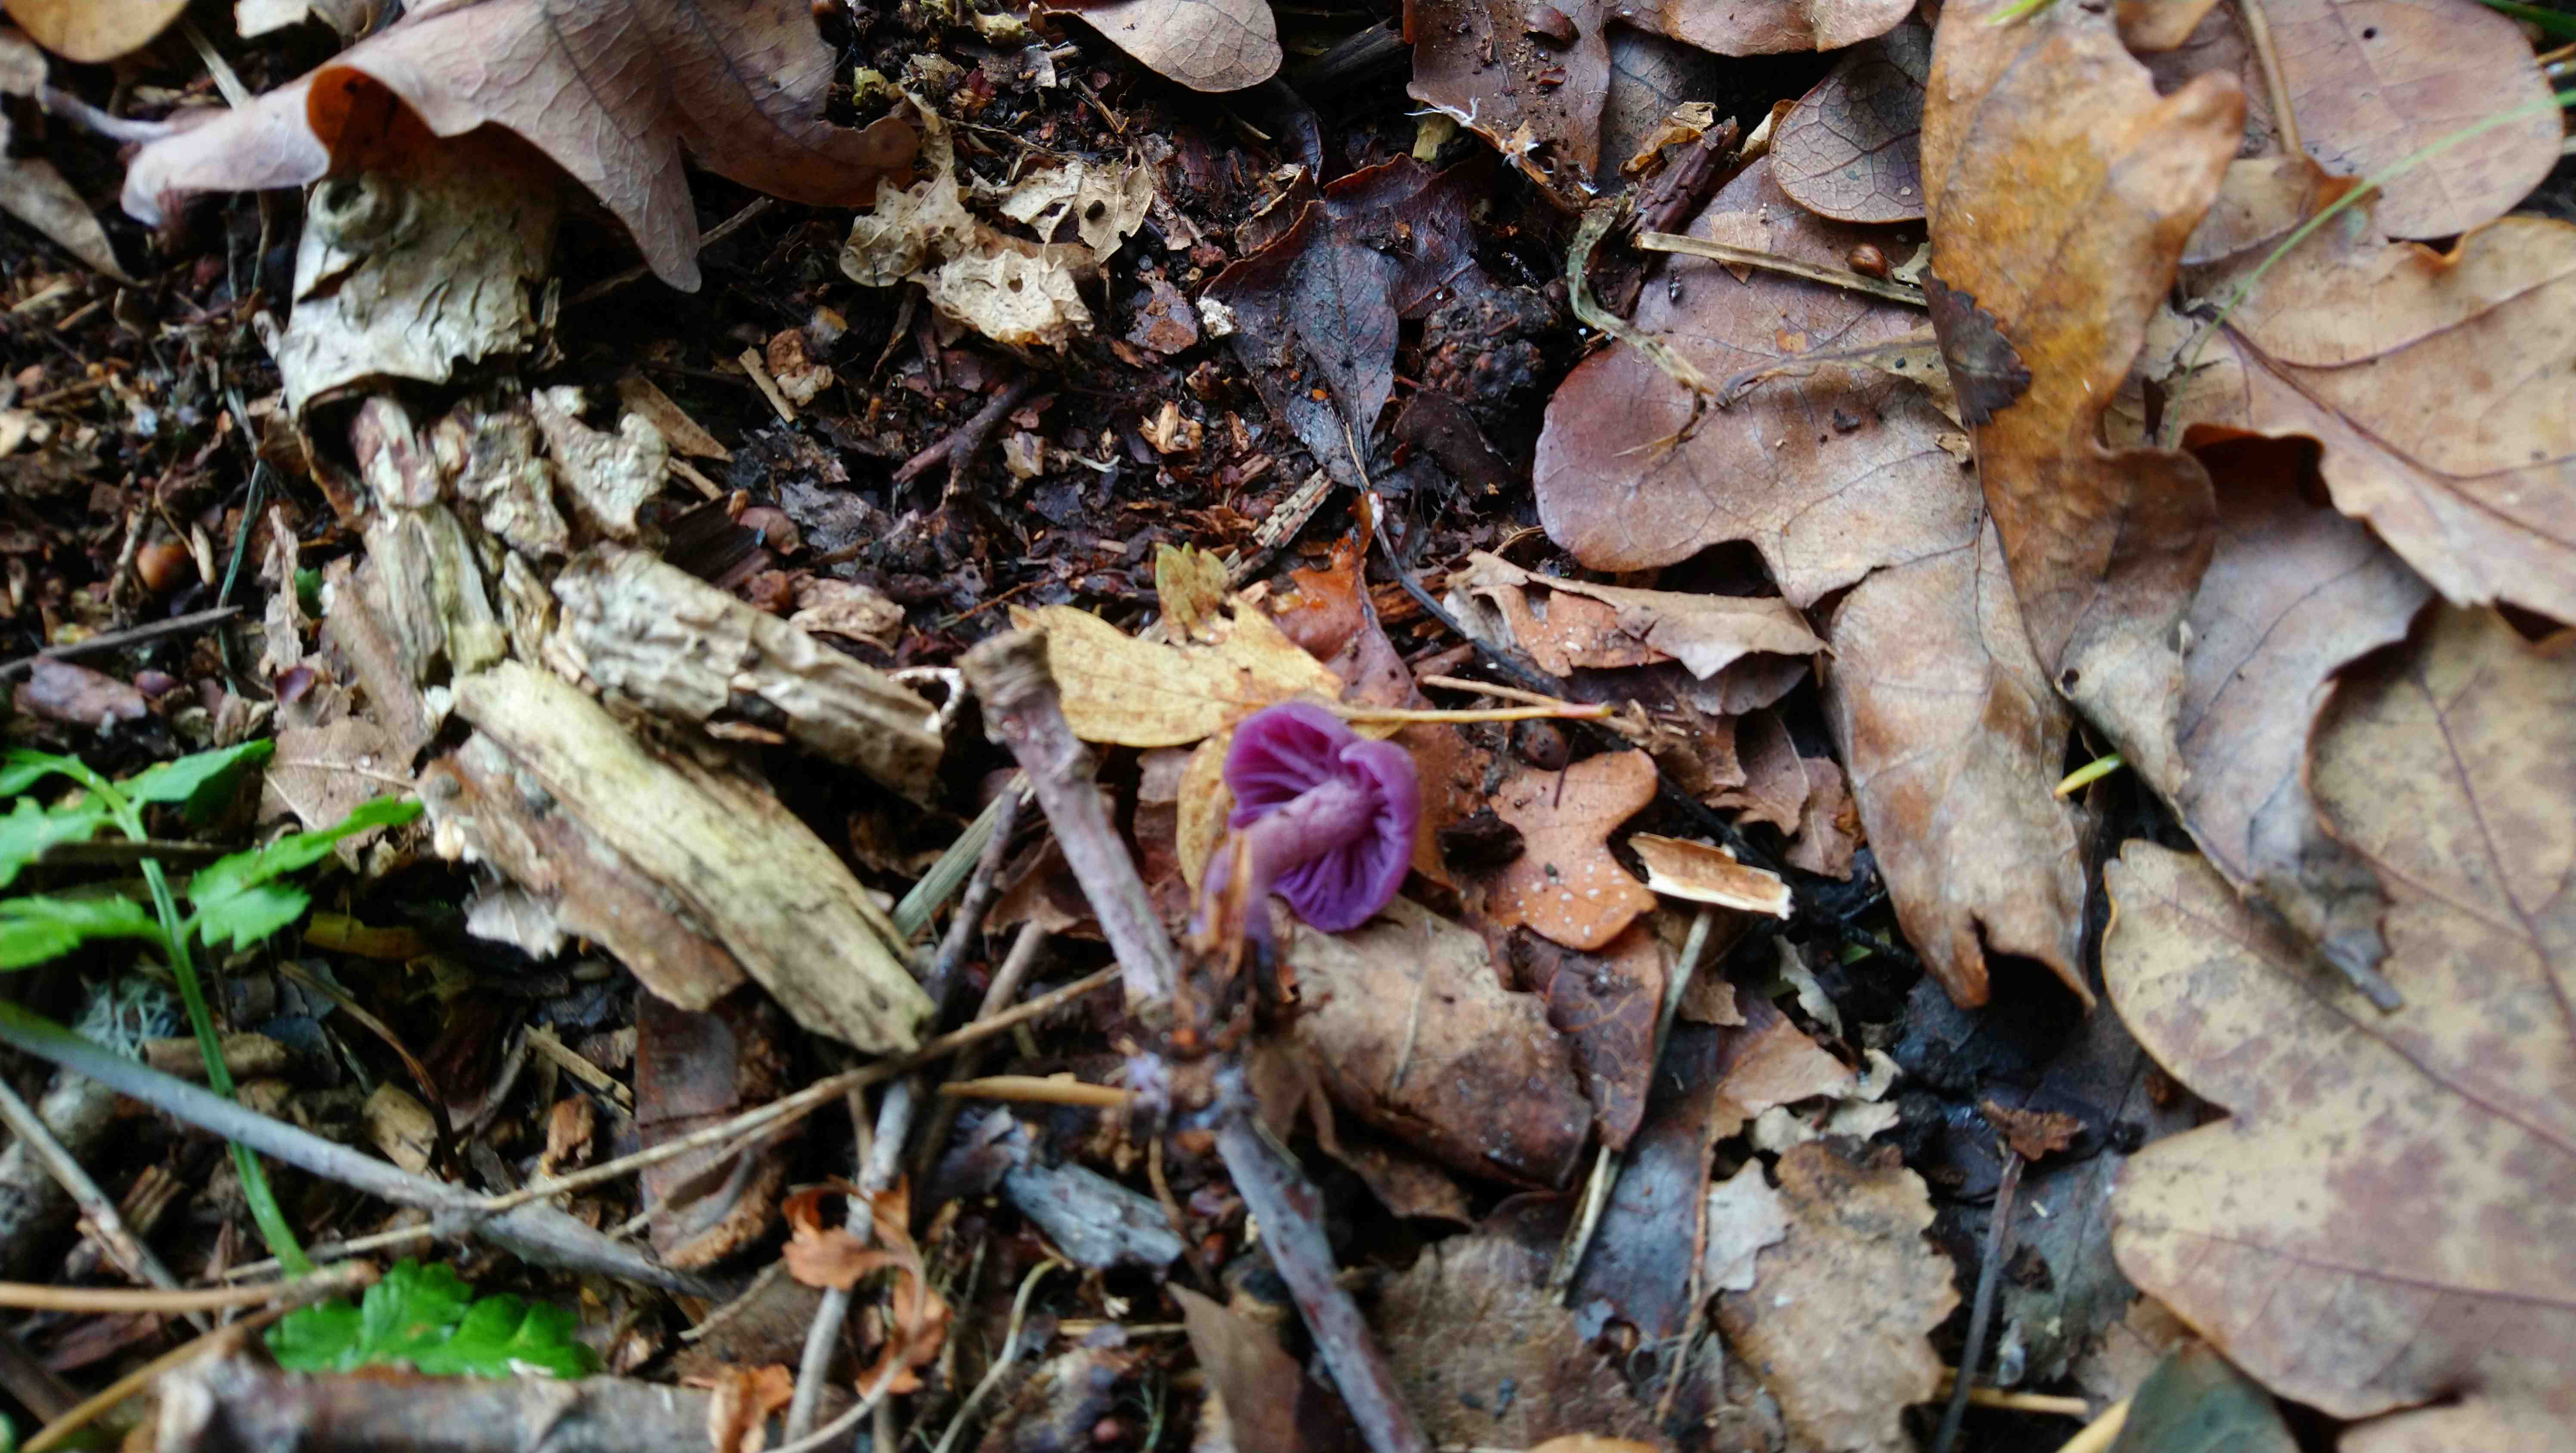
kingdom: Fungi
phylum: Basidiomycota
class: Agaricomycetes
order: Agaricales
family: Hydnangiaceae
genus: Laccaria
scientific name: Laccaria amethystina
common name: violet ametysthat
